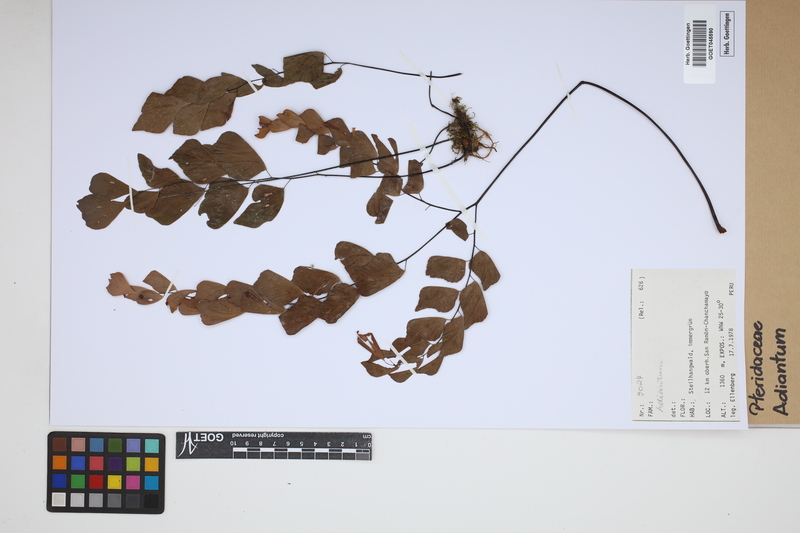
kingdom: Plantae
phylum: Tracheophyta
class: Polypodiopsida
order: Polypodiales
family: Pteridaceae
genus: Adiantum
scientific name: Adiantum
